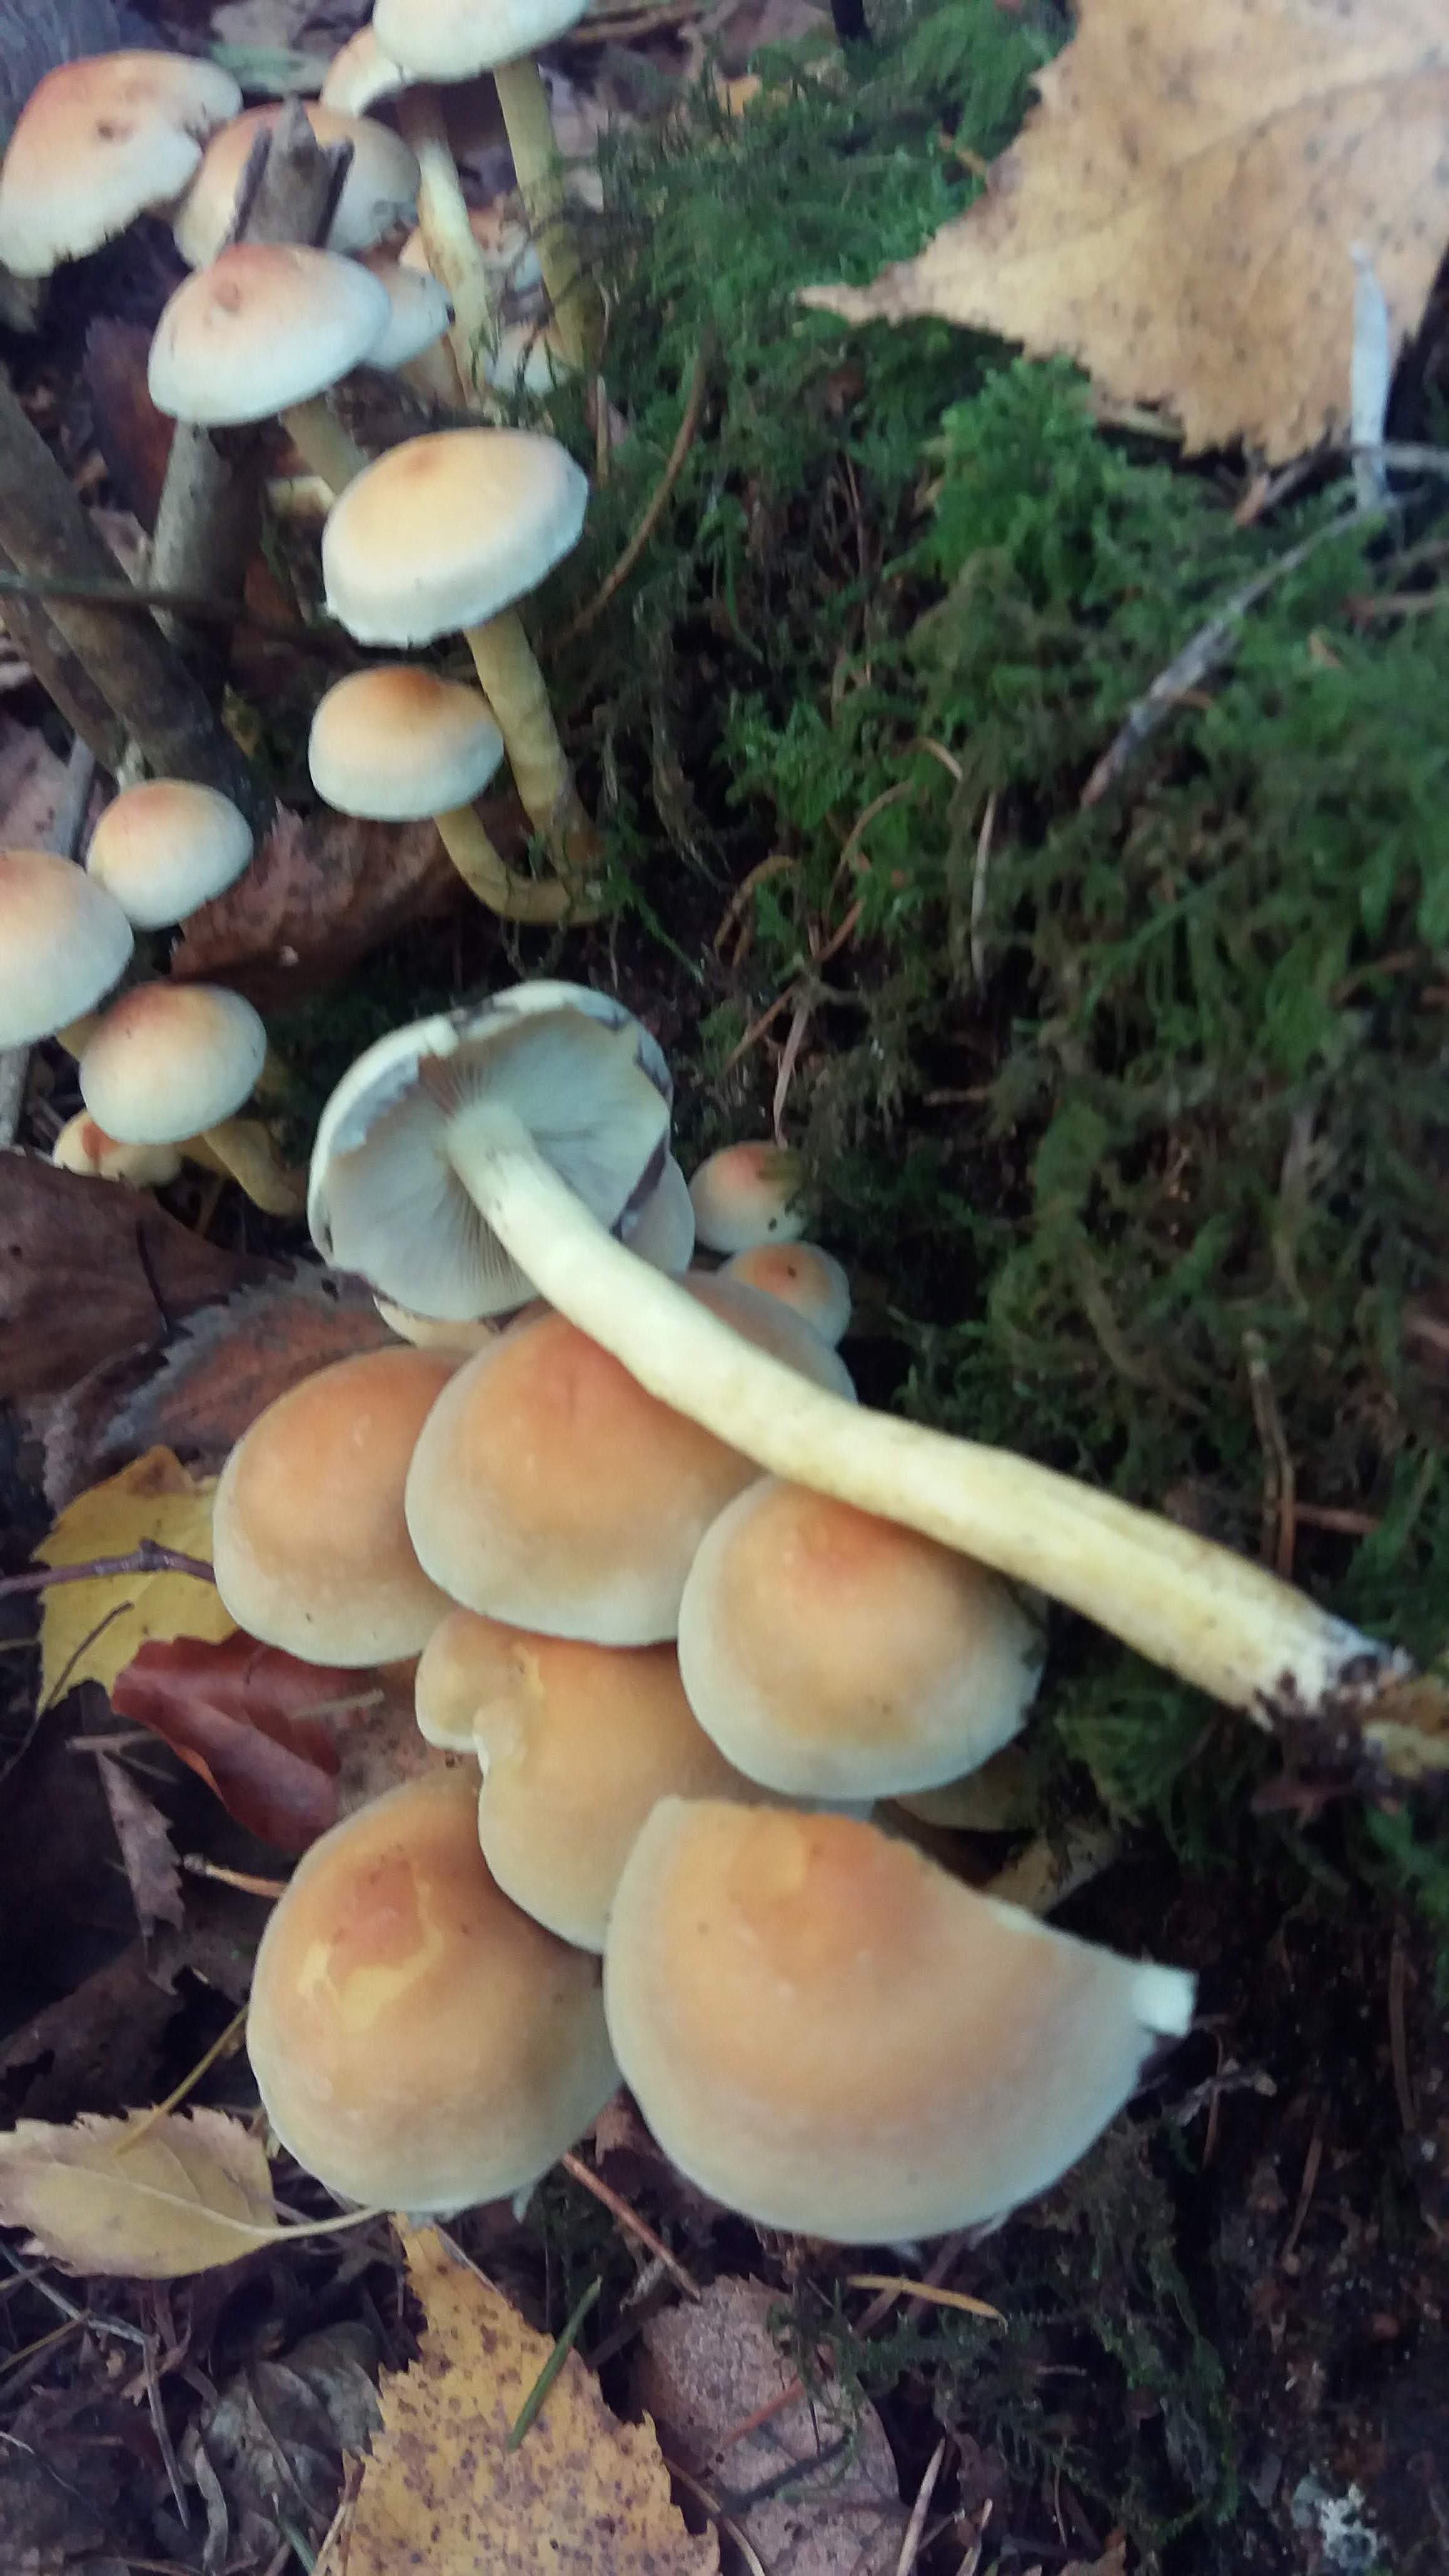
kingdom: Fungi
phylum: Basidiomycota
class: Agaricomycetes
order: Agaricales
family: Strophariaceae
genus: Hypholoma
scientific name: Hypholoma fasciculare
